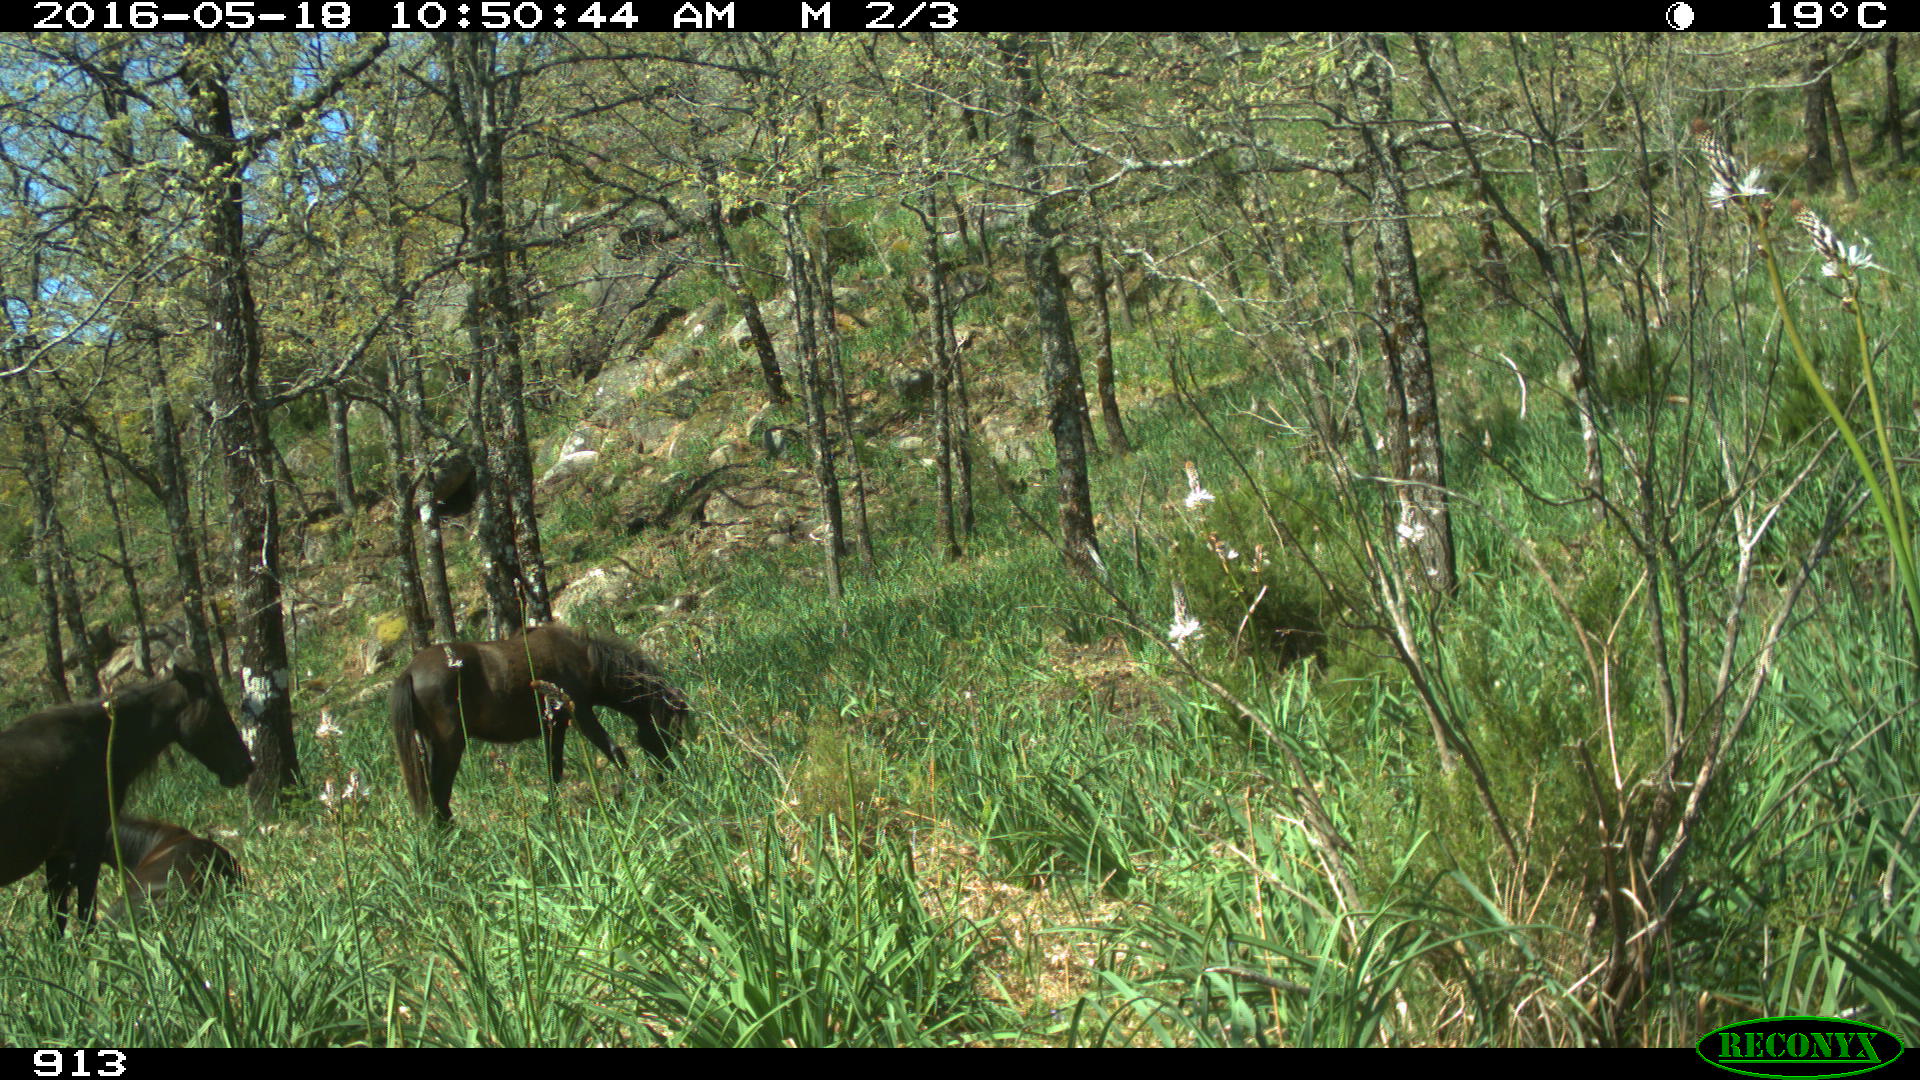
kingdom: Animalia
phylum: Chordata
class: Mammalia
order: Perissodactyla
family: Equidae
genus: Equus
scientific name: Equus caballus
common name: Horse
